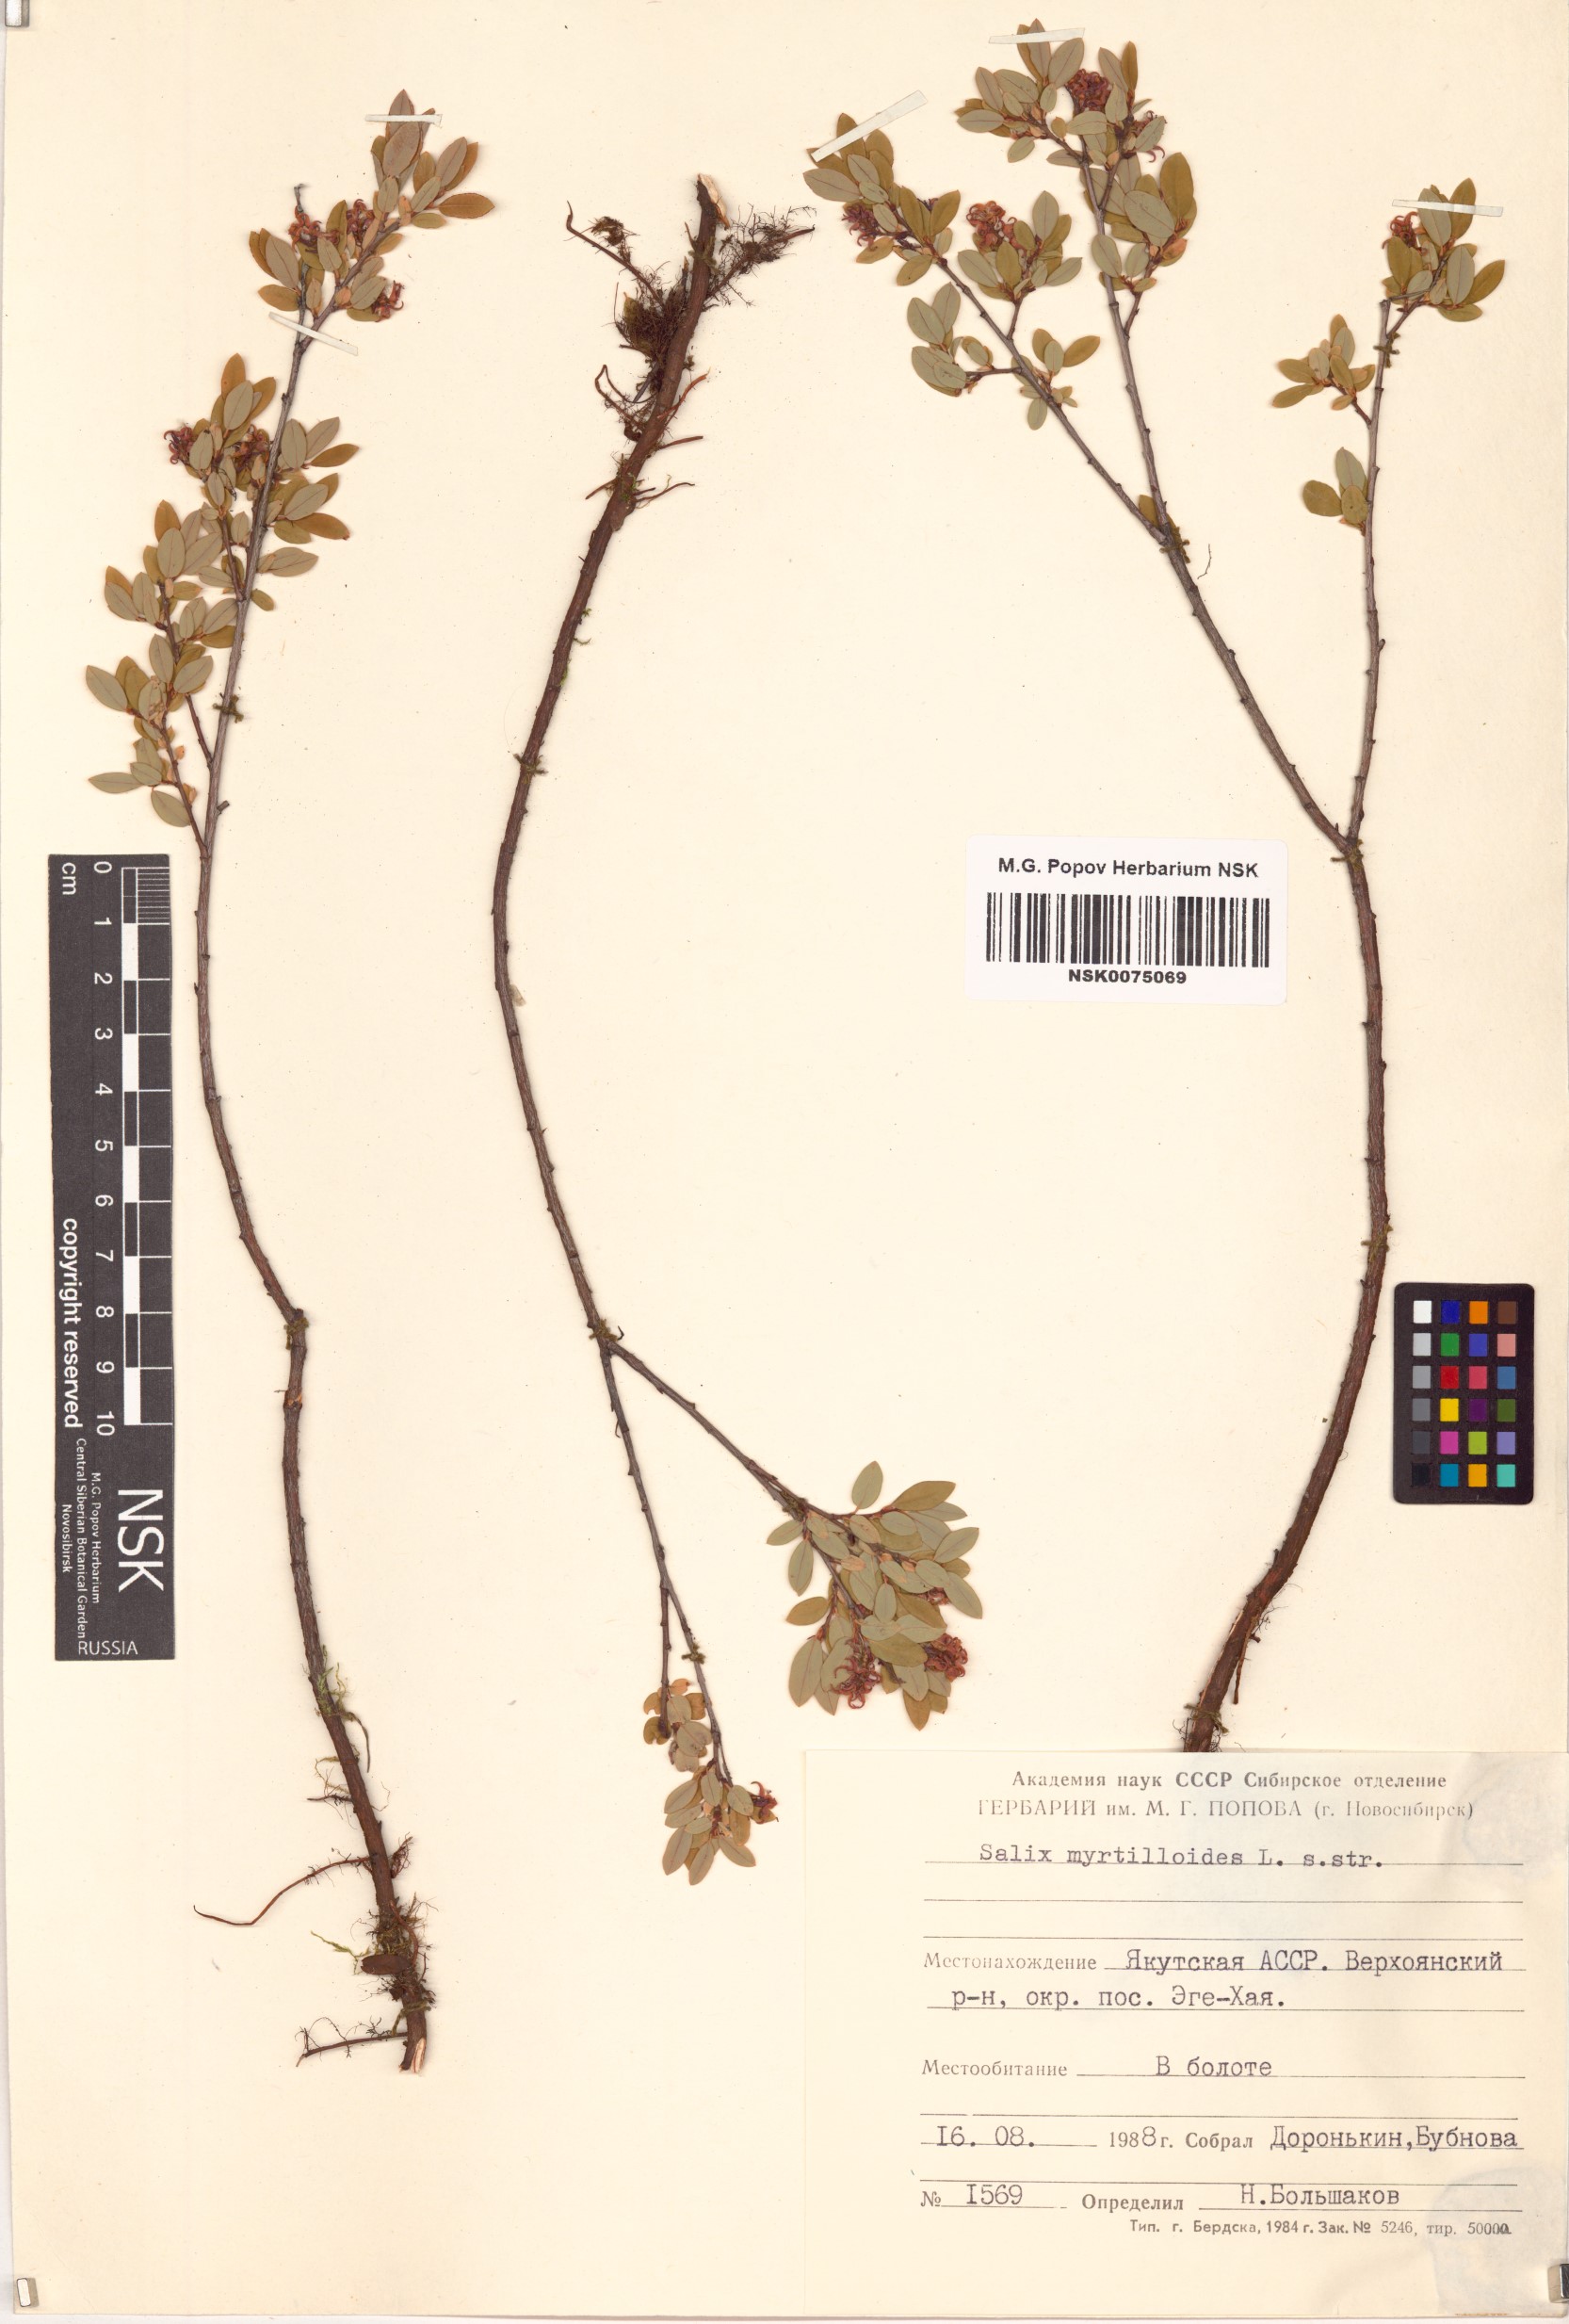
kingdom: Plantae
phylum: Tracheophyta
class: Magnoliopsida
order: Malpighiales
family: Salicaceae
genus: Salix
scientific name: Salix myrtilloides
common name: Myrtle-leaved willow
